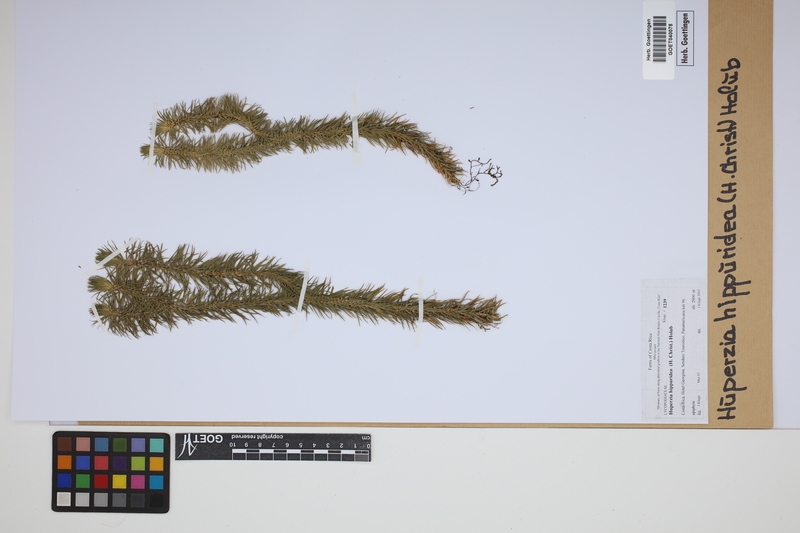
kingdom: Plantae
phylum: Tracheophyta
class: Lycopodiopsida
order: Lycopodiales
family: Lycopodiaceae
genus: Phlegmariurus
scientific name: Phlegmariurus hippurideus
